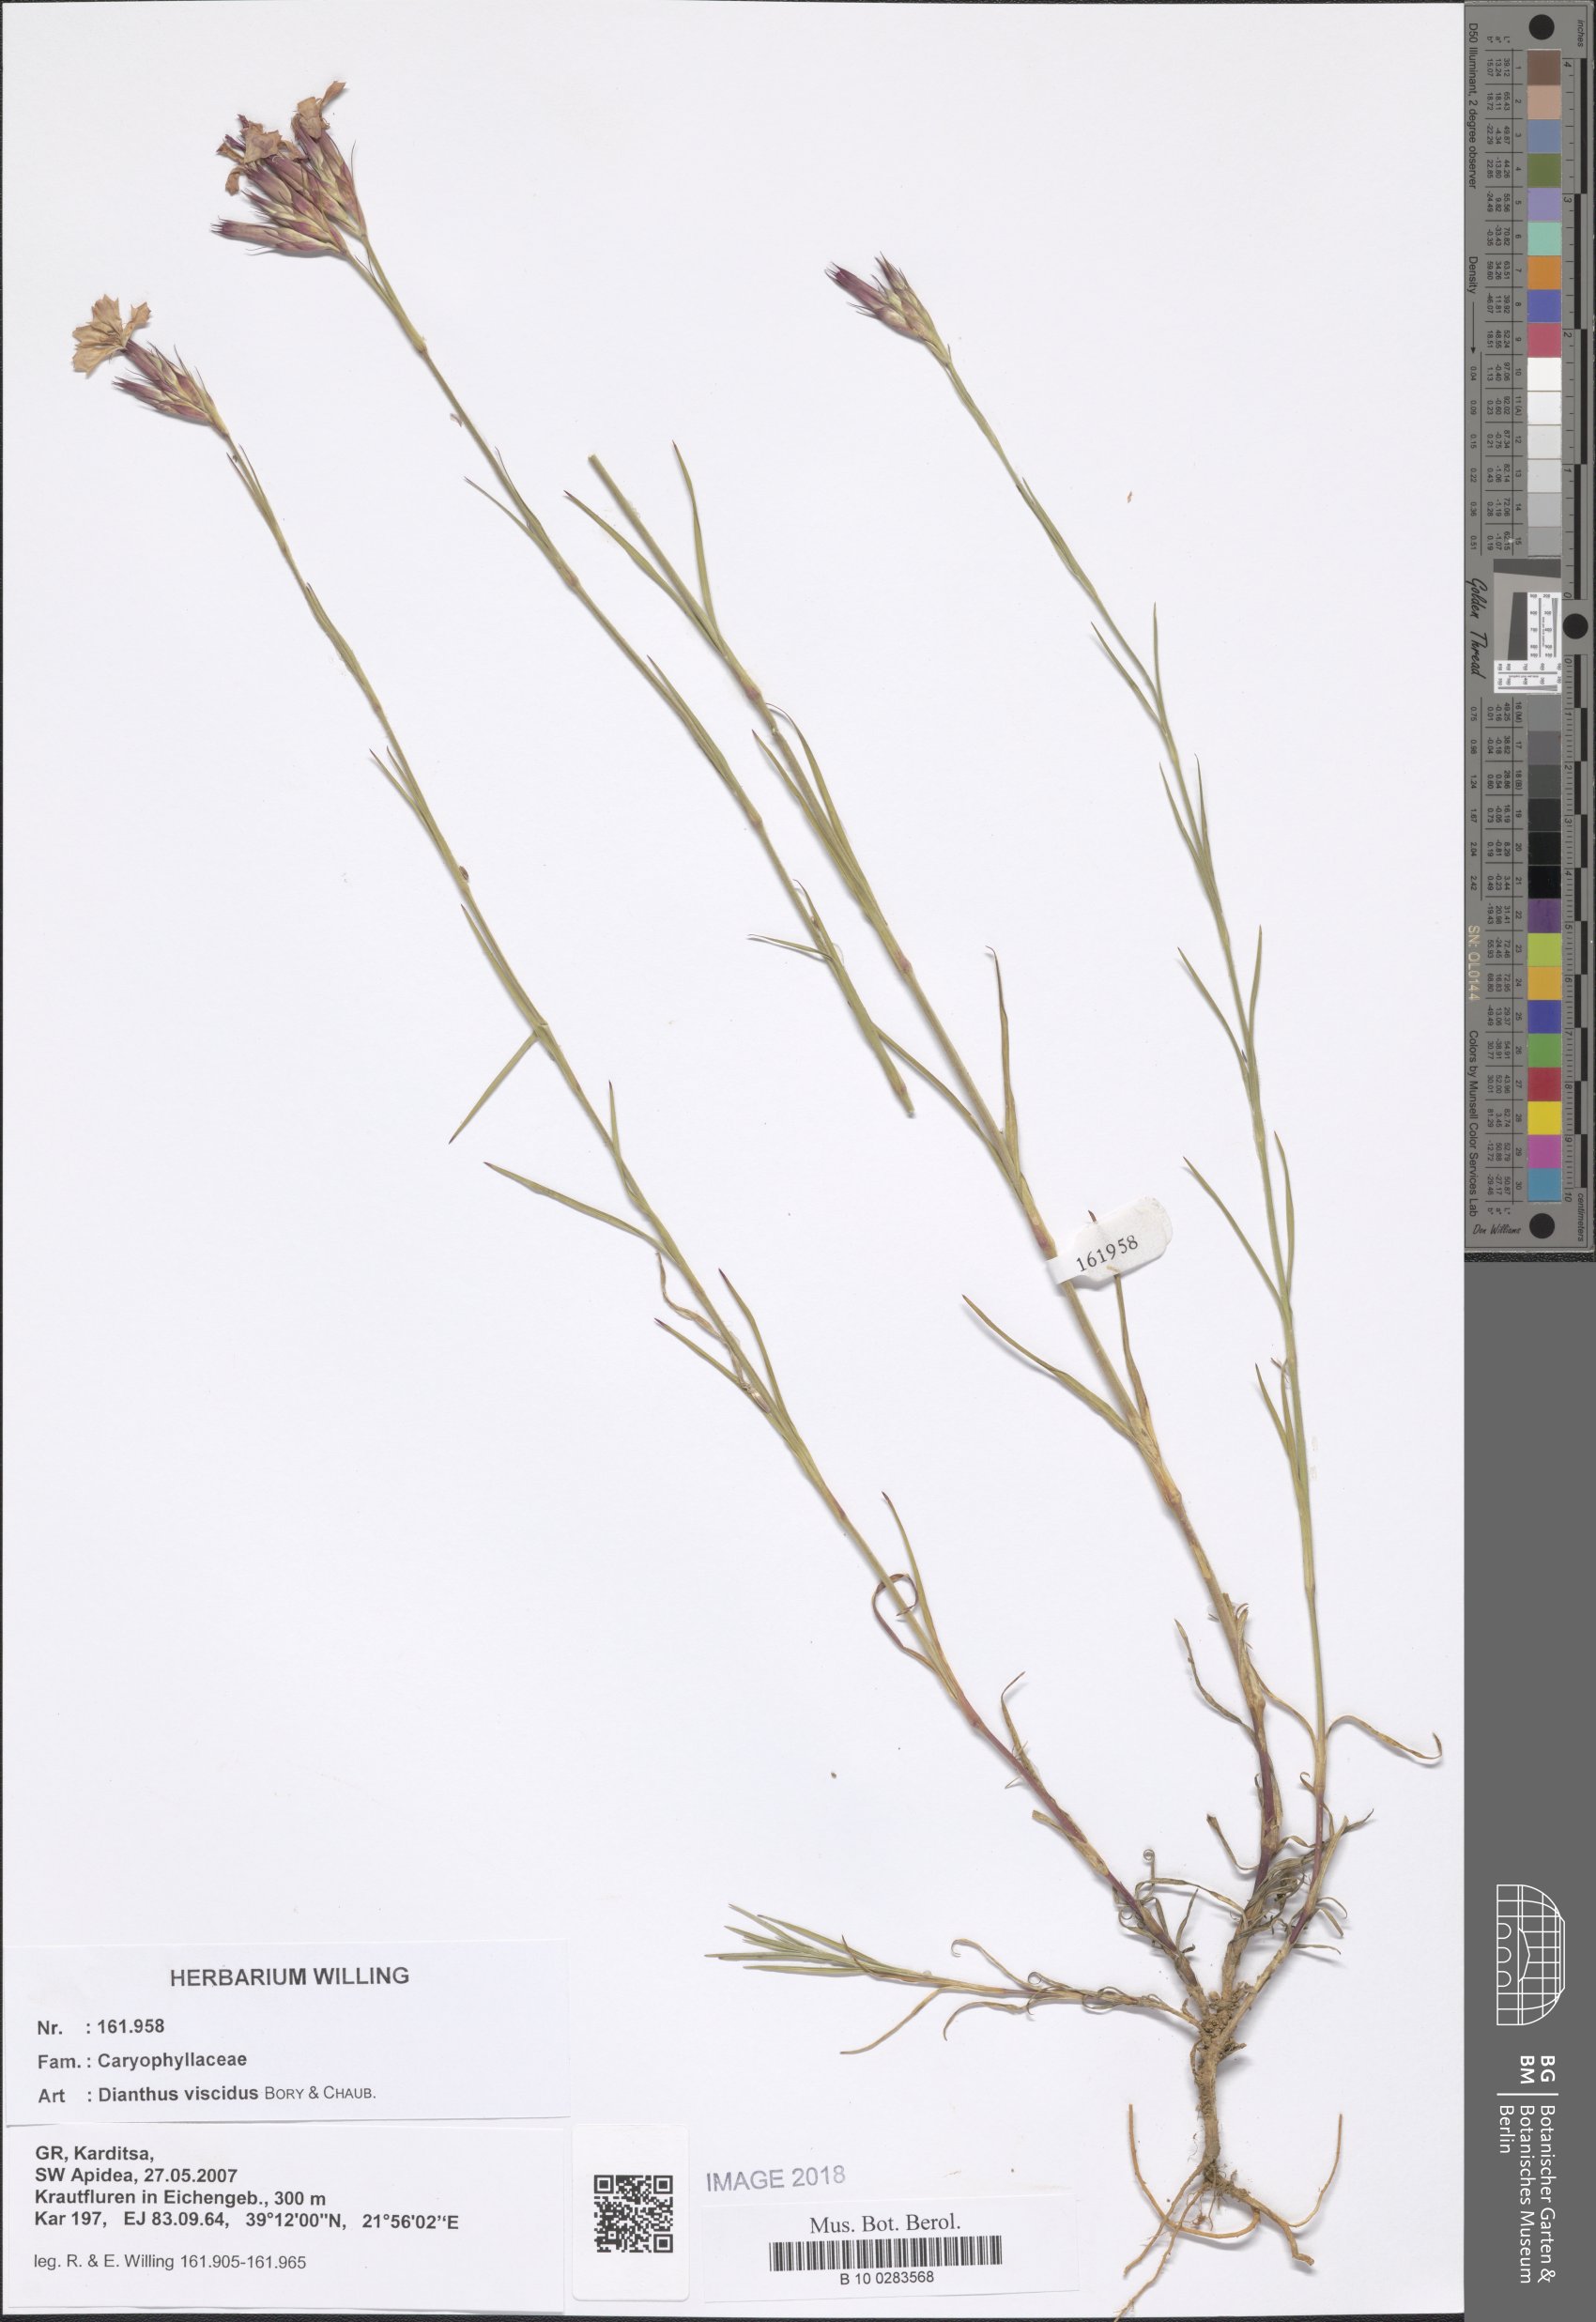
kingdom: Plantae
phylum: Tracheophyta
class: Magnoliopsida
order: Caryophyllales
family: Caryophyllaceae
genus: Dianthus
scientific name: Dianthus viscidus
